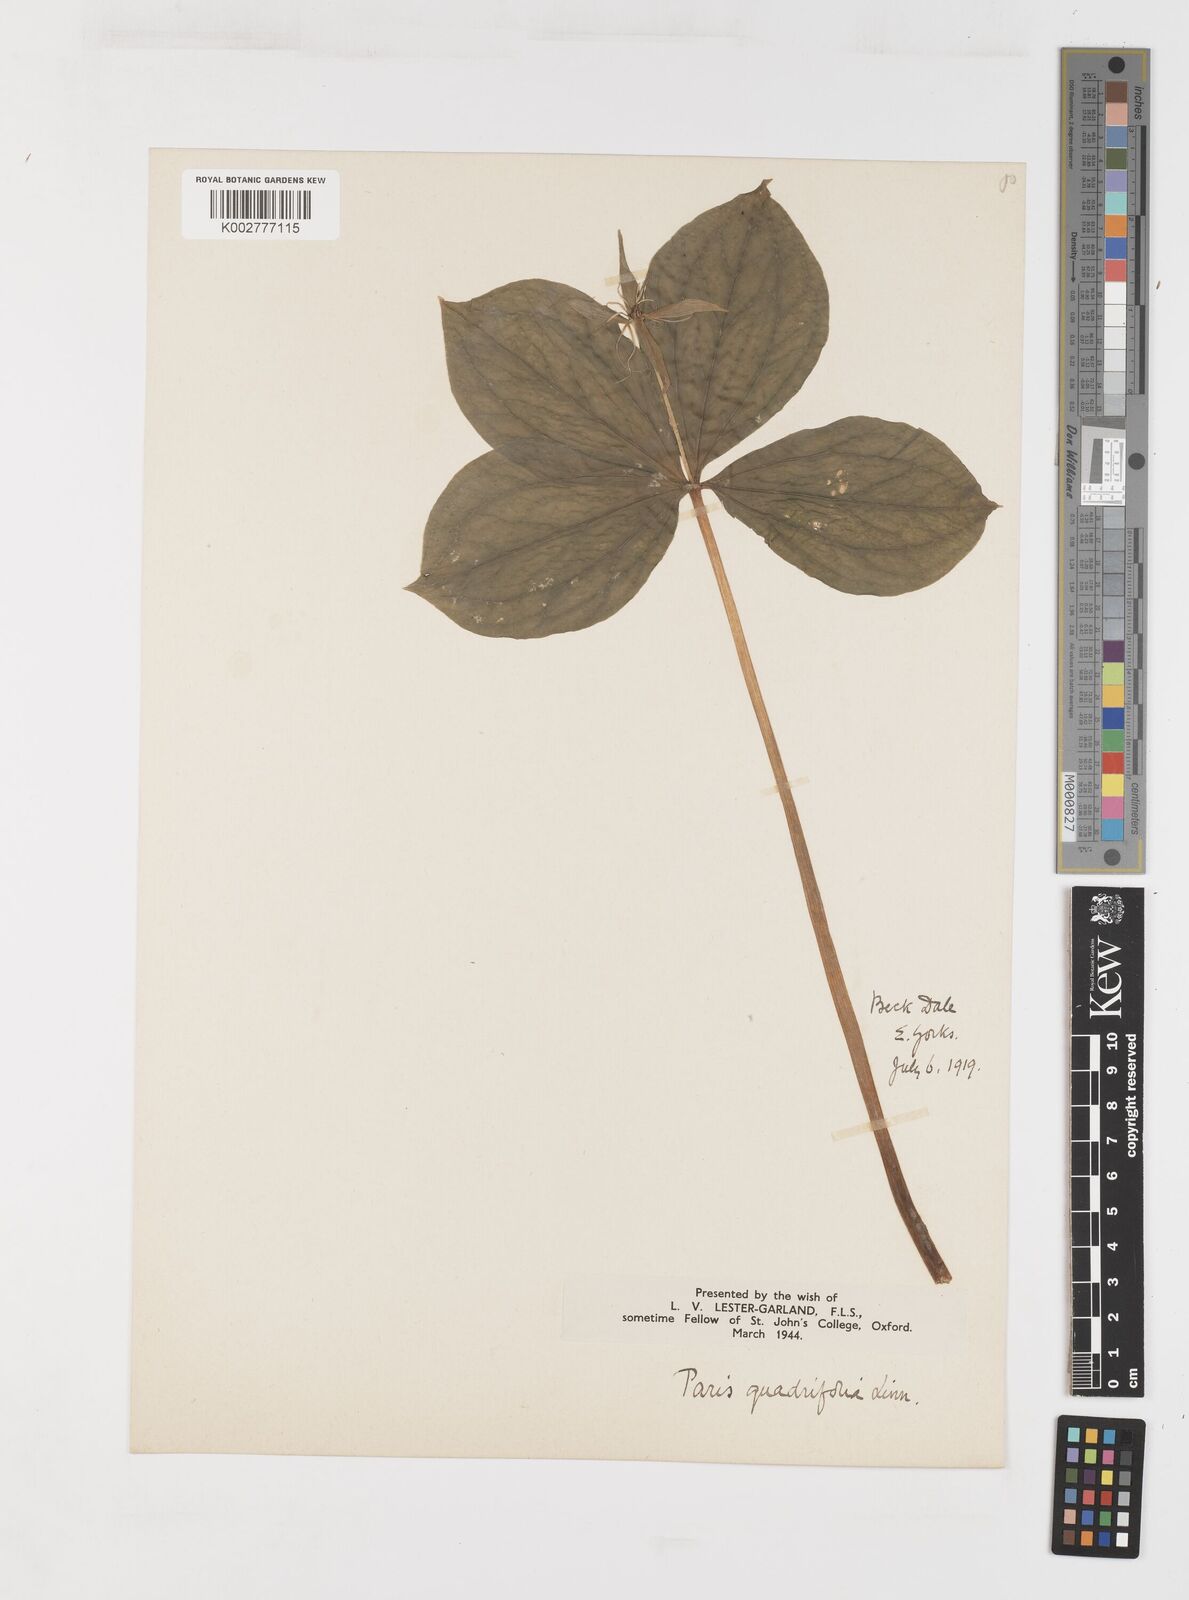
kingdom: Plantae
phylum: Tracheophyta
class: Liliopsida
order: Liliales
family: Melanthiaceae
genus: Paris
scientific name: Paris quadrifolia
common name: Herb-paris
